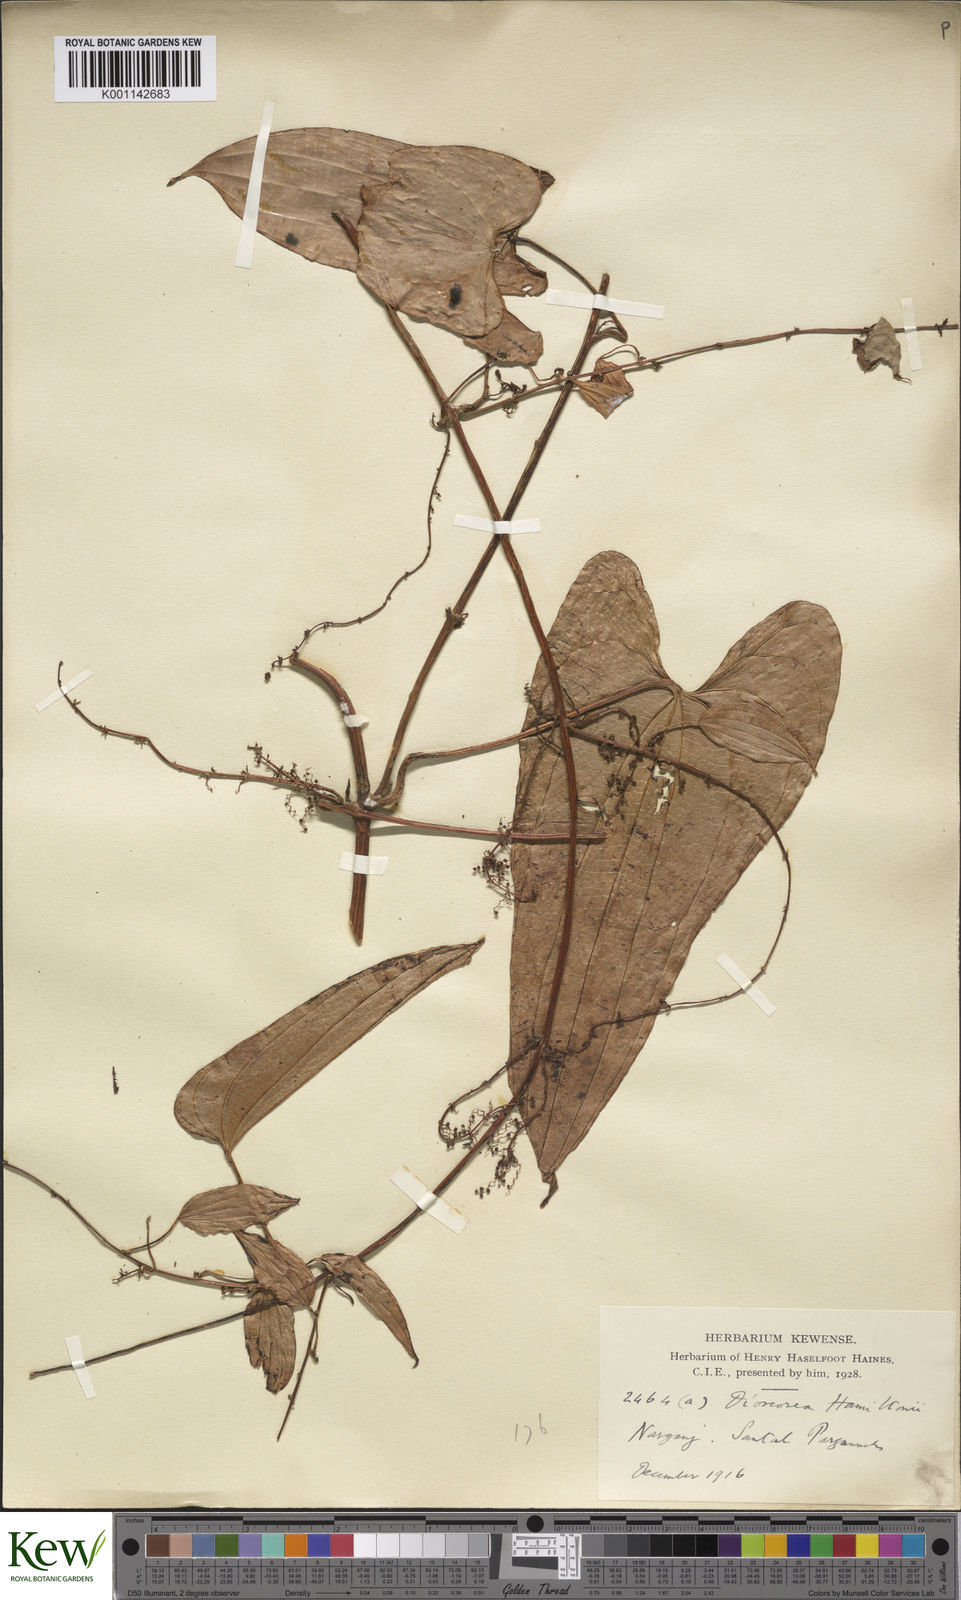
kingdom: Plantae
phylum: Tracheophyta
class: Liliopsida
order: Dioscoreales
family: Dioscoreaceae
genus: Dioscorea
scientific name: Dioscorea hamiltonii
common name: Mountain yam
